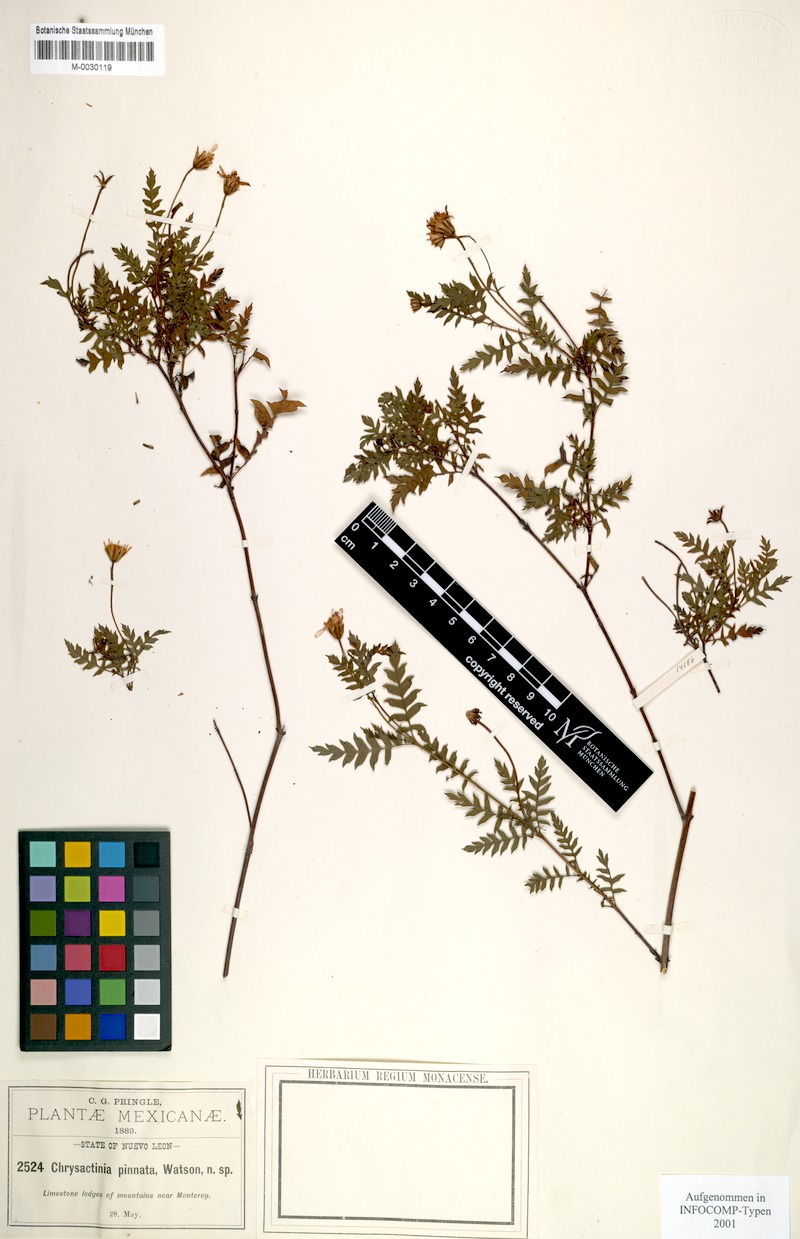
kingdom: Plantae
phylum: Tracheophyta
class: Magnoliopsida
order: Asterales
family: Asteraceae
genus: Chrysactinia
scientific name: Chrysactinia pinnata
